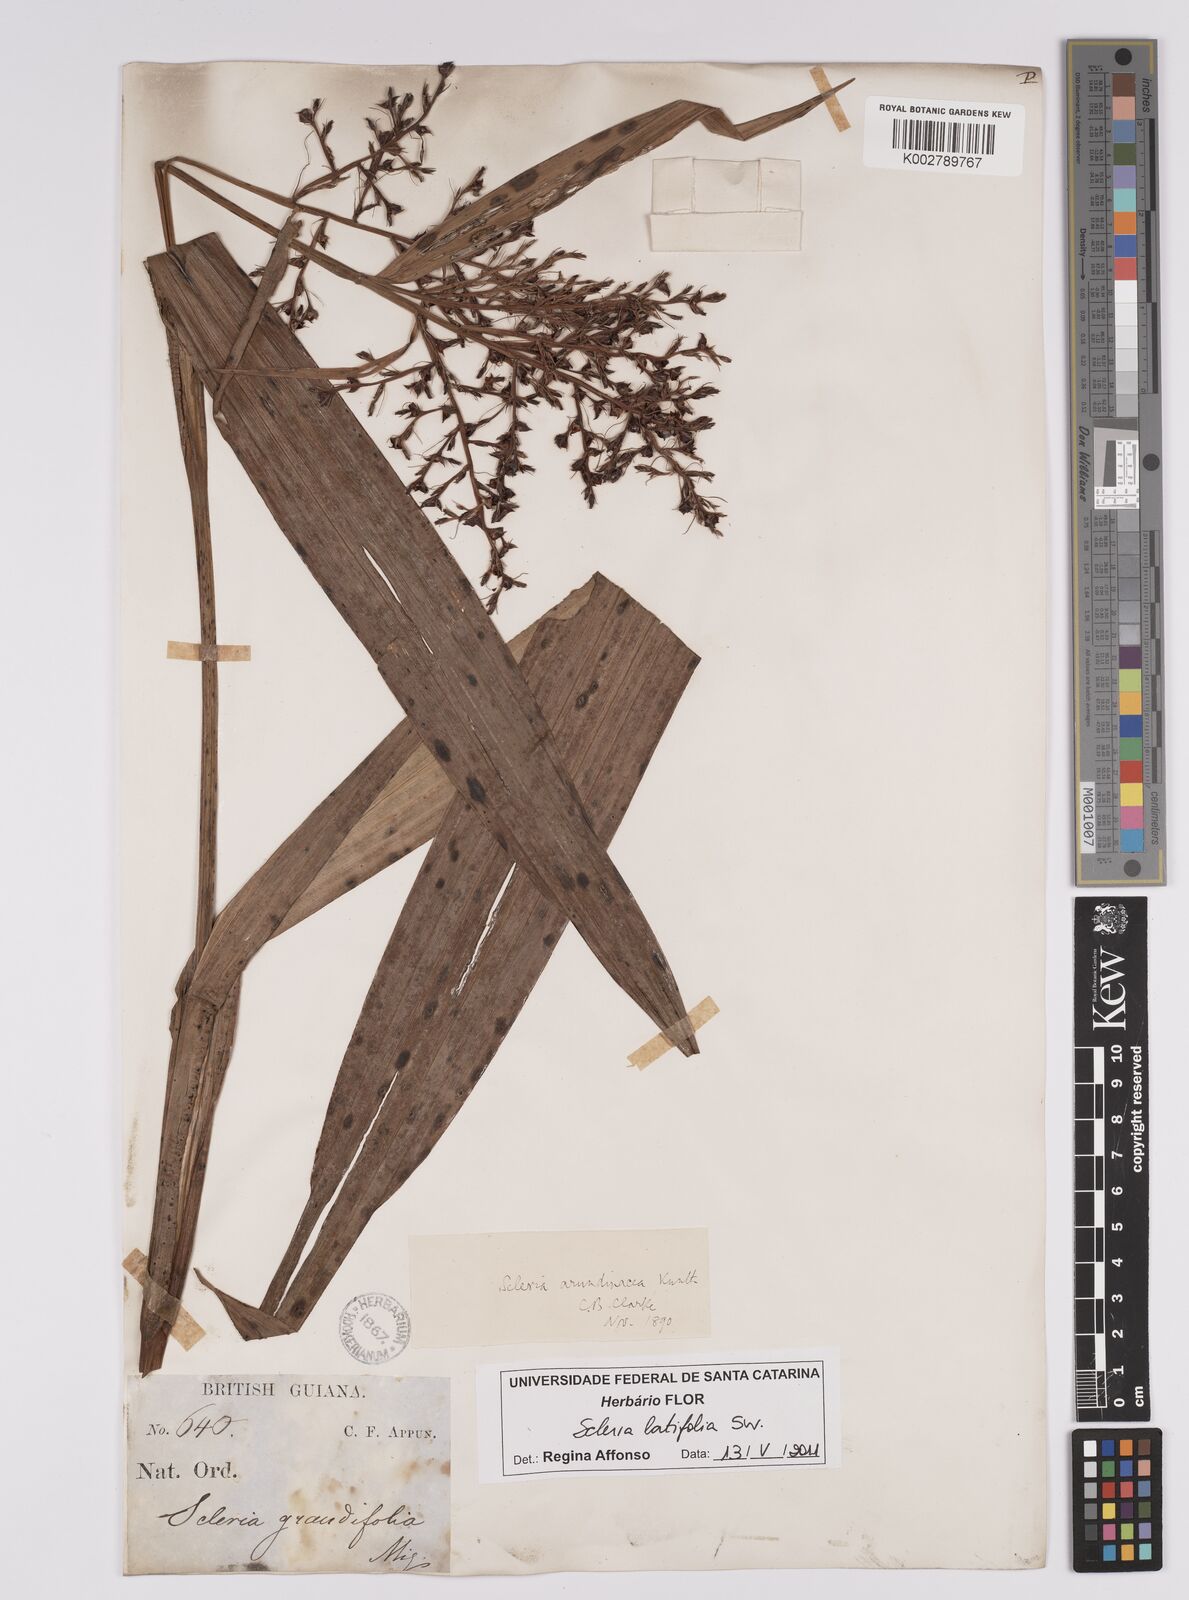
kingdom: Plantae
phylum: Tracheophyta
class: Liliopsida
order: Poales
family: Cyperaceae
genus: Scleria
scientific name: Scleria latifolia
